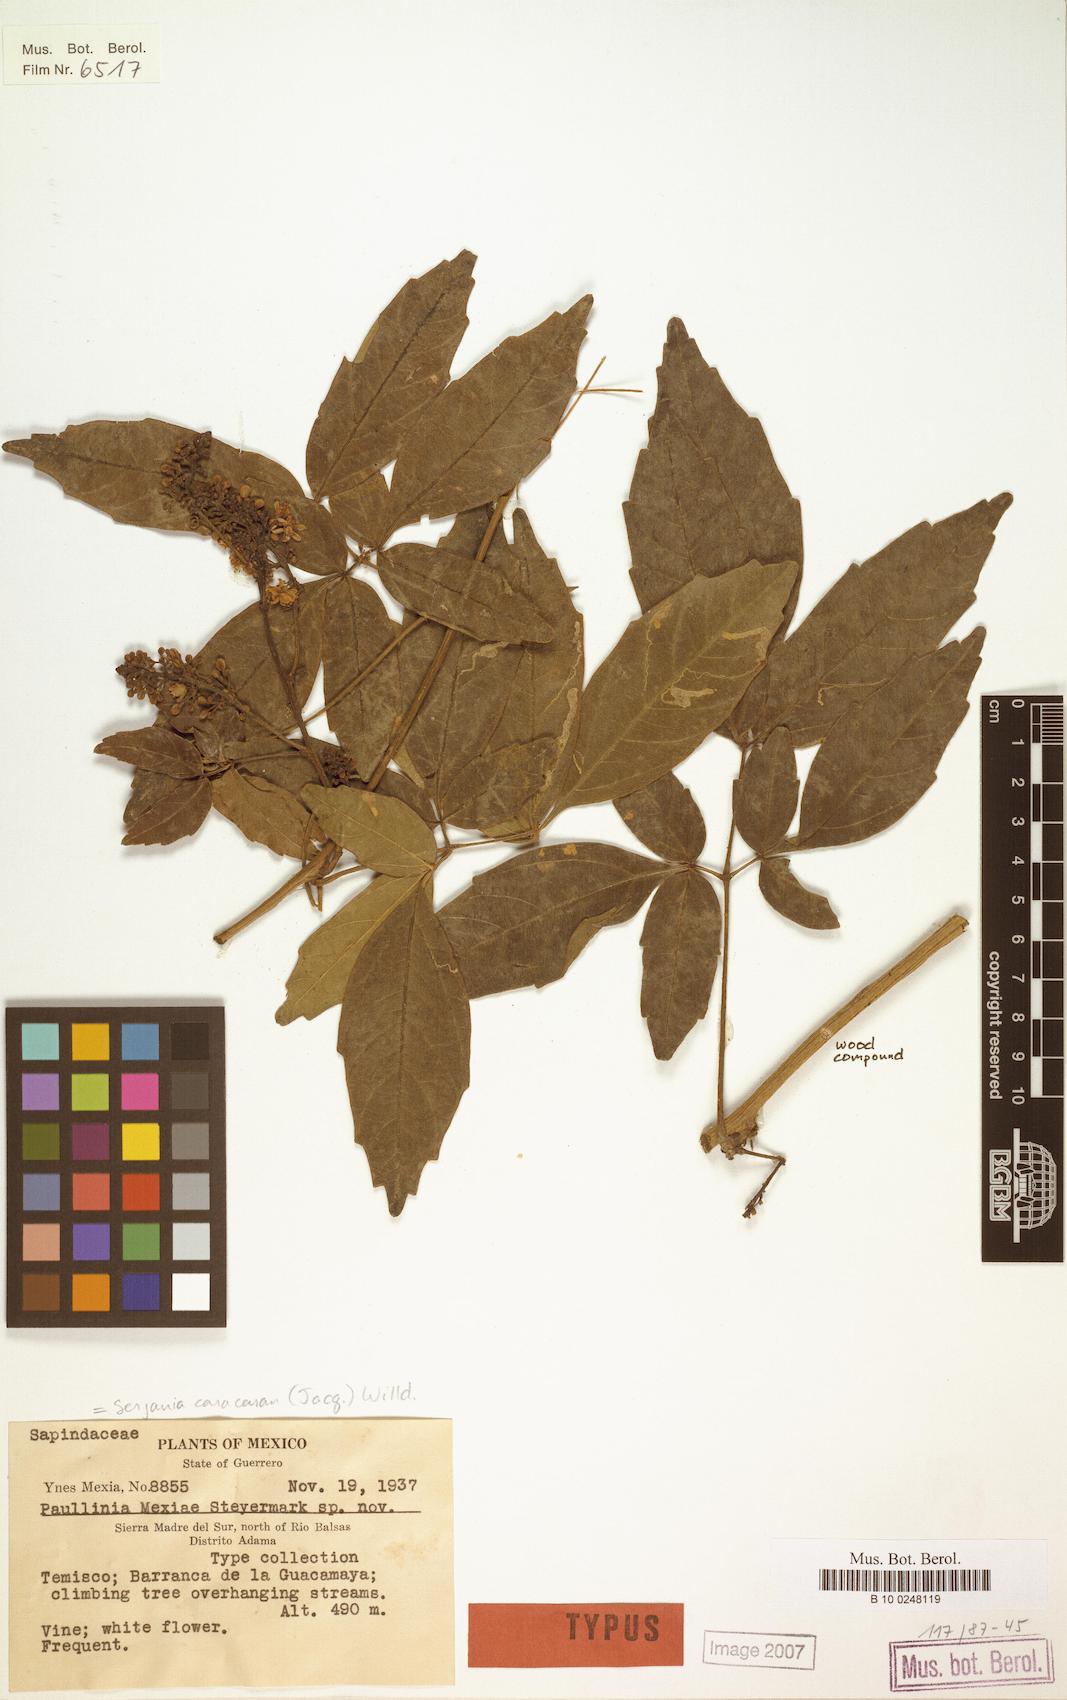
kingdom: Plantae
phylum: Tracheophyta
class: Magnoliopsida
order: Sapindales
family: Sapindaceae
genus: Serjania
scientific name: Serjania caracasana
